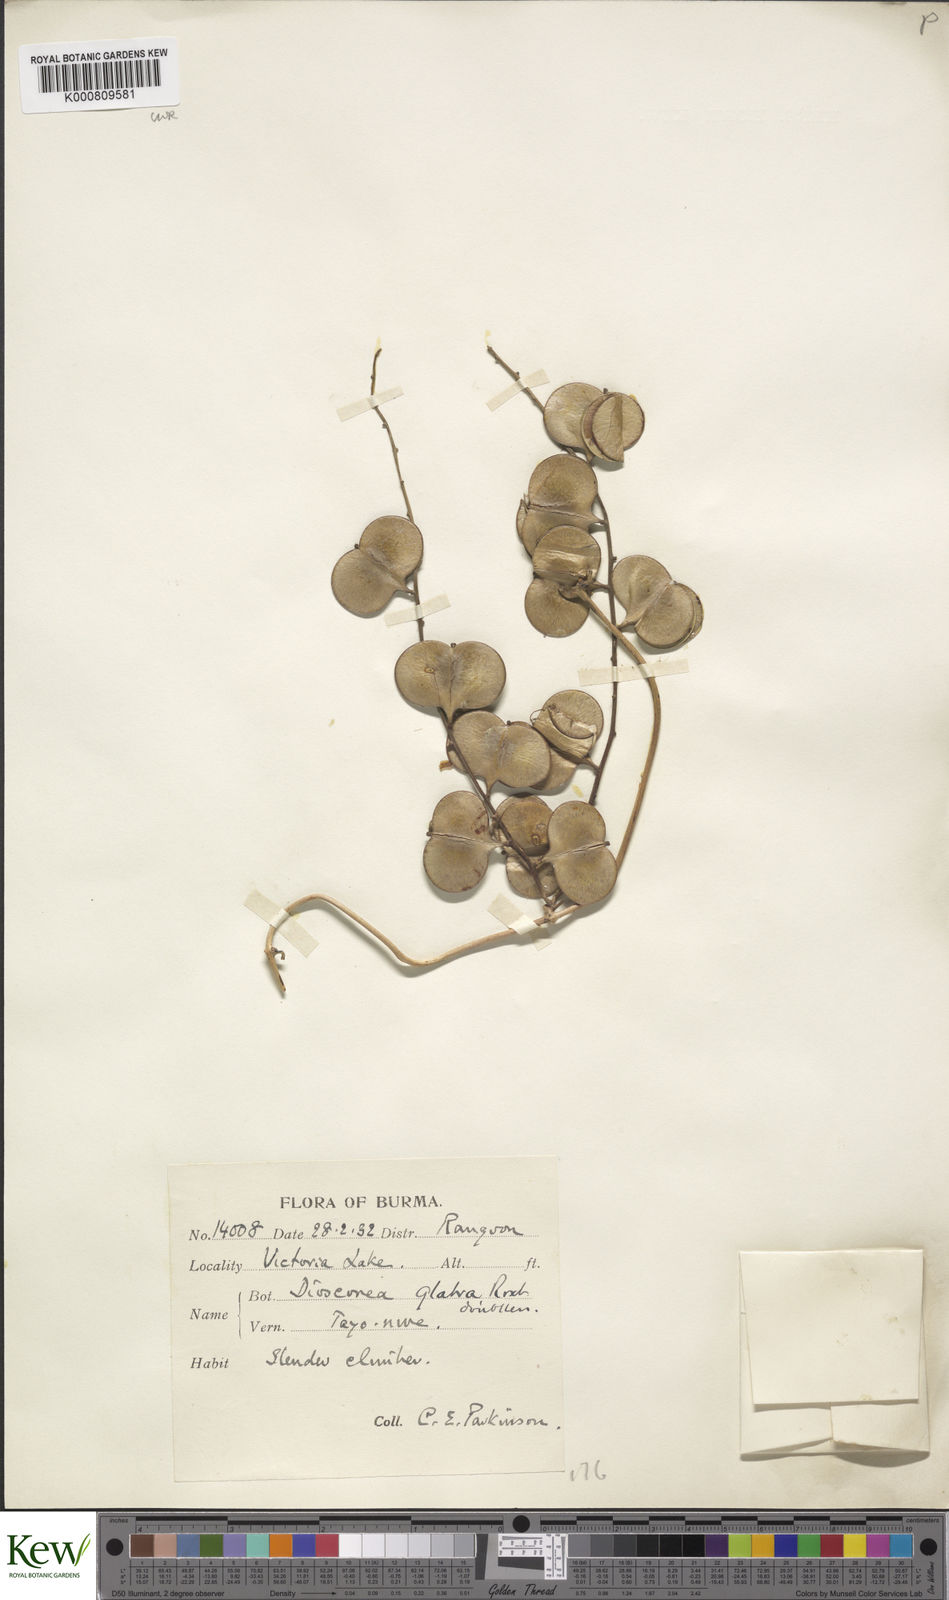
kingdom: Plantae
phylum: Tracheophyta
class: Liliopsida
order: Dioscoreales
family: Dioscoreaceae
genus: Dioscorea
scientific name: Dioscorea glabra
